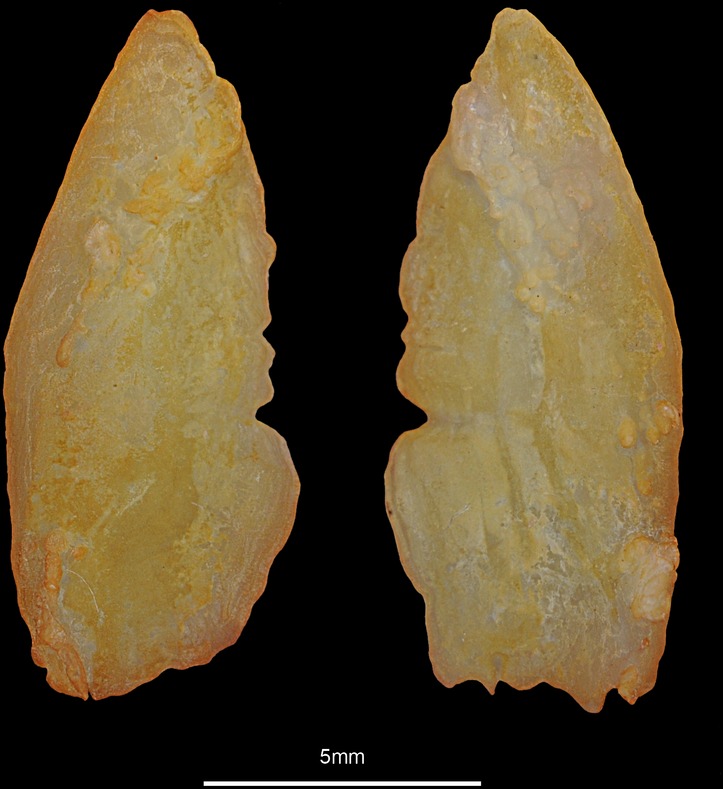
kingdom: Animalia
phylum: Chordata
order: Perciformes
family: Trachinidae
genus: Trachinus
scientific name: Trachinus radiatus
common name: Starry weever
